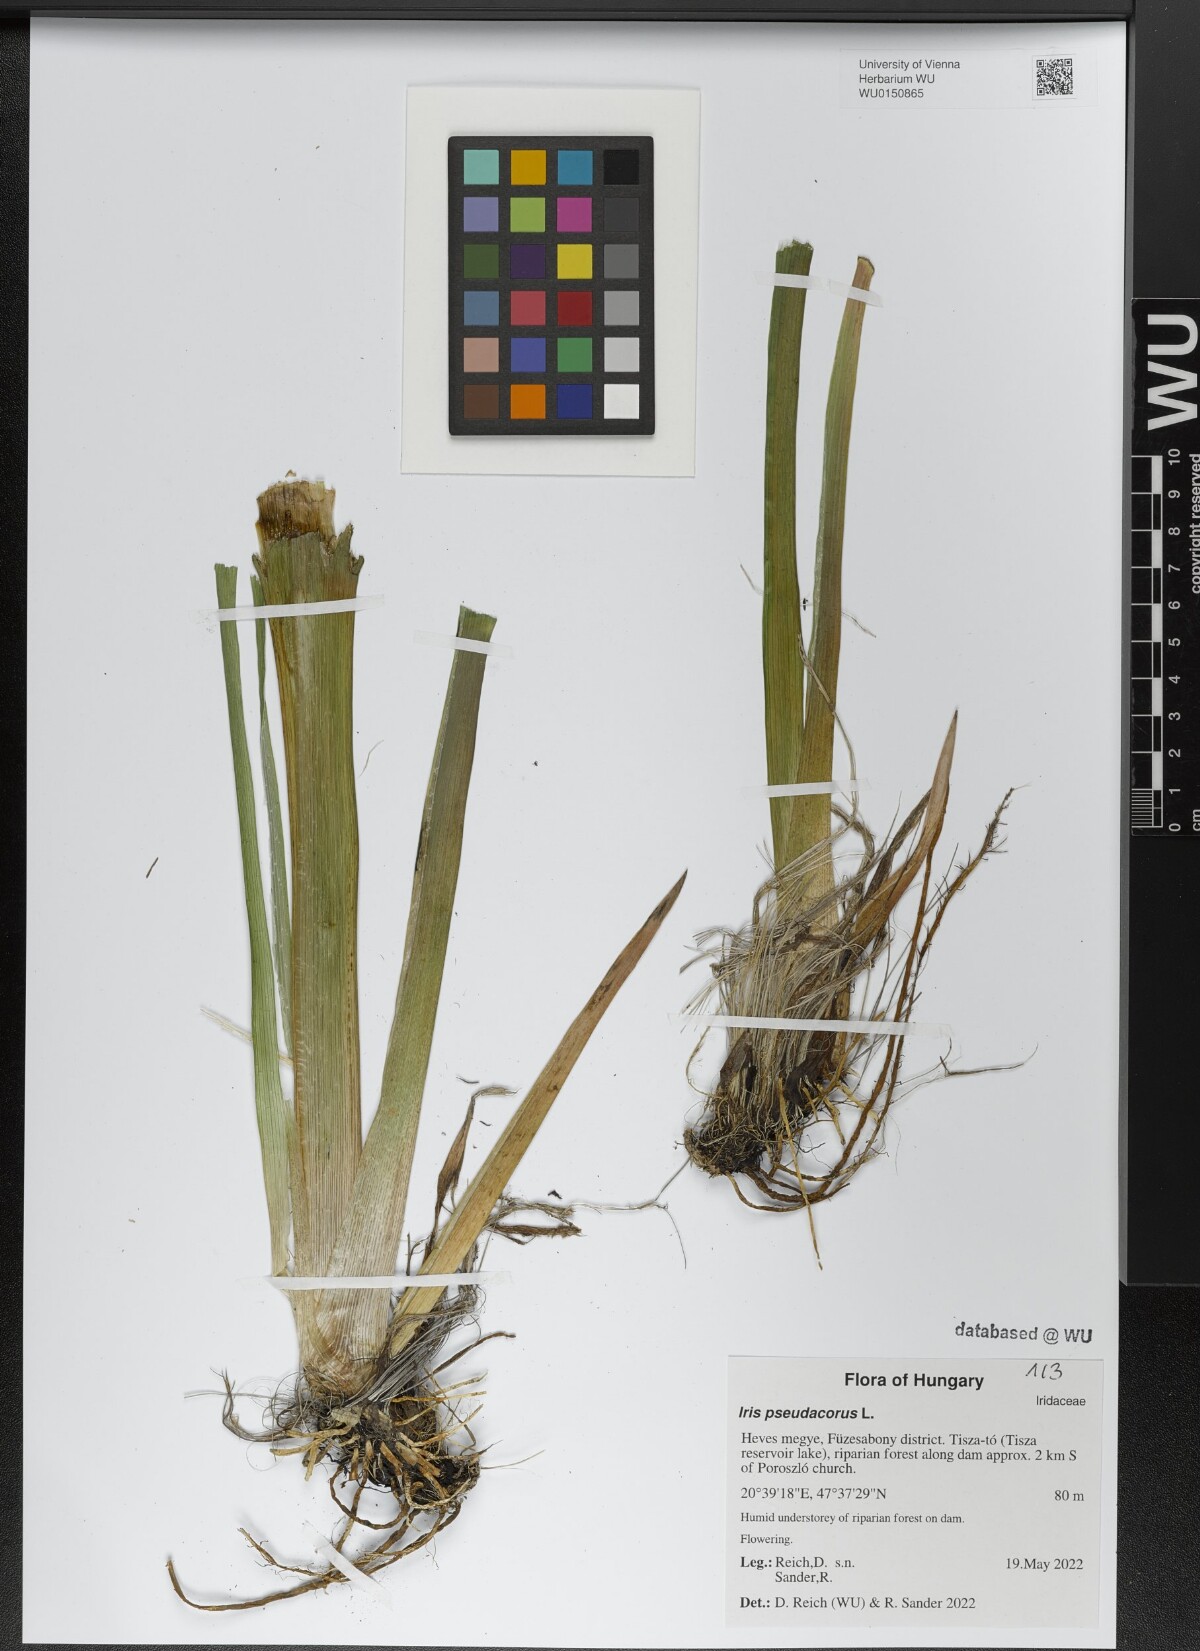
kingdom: Plantae
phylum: Tracheophyta
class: Liliopsida
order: Asparagales
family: Iridaceae
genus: Iris
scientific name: Iris pseudacorus
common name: Yellow flag
